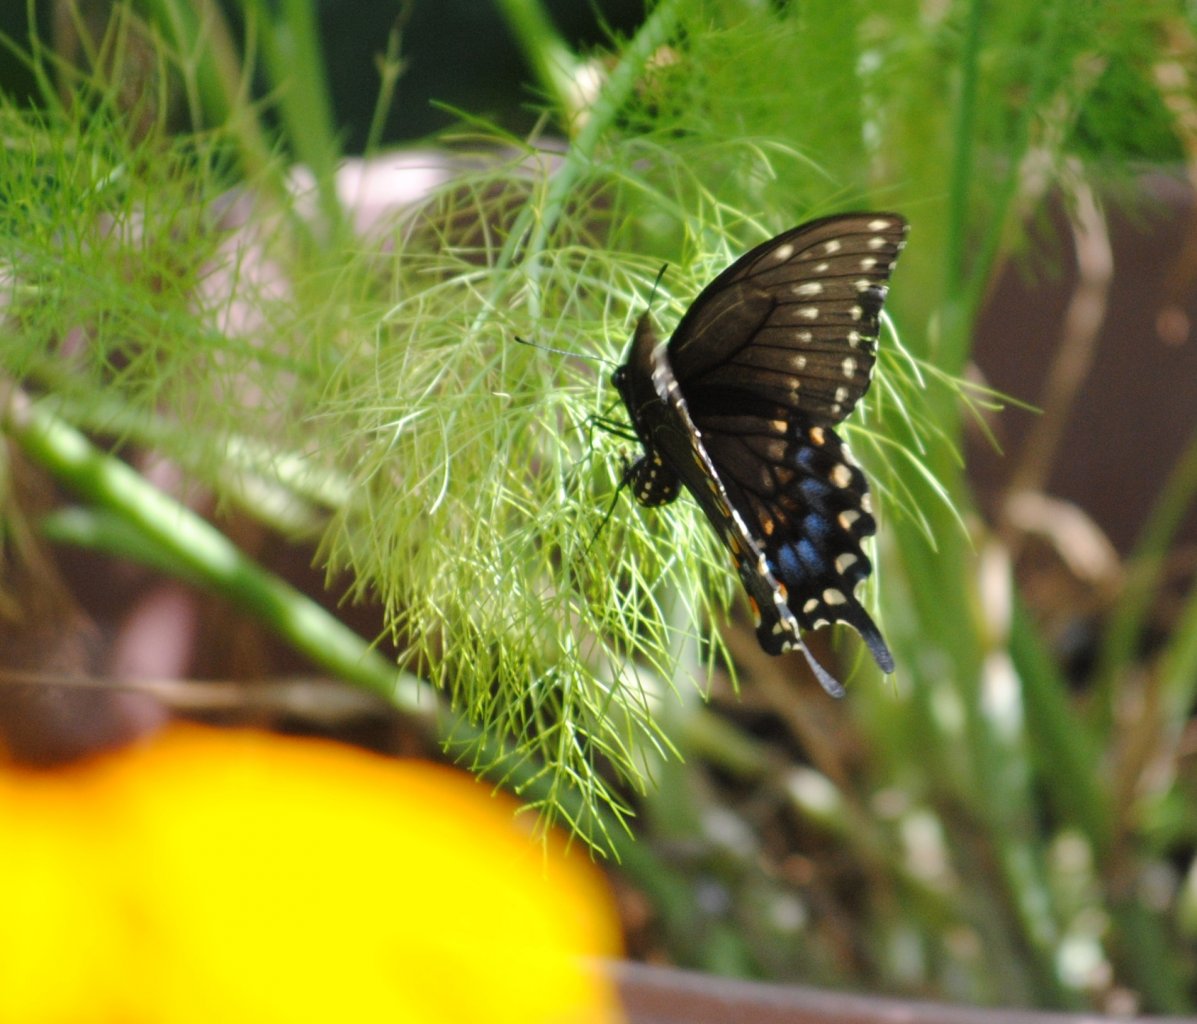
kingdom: Animalia
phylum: Arthropoda
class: Insecta
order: Lepidoptera
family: Papilionidae
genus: Papilio
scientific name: Papilio polyxenes
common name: Black Swallowtail
